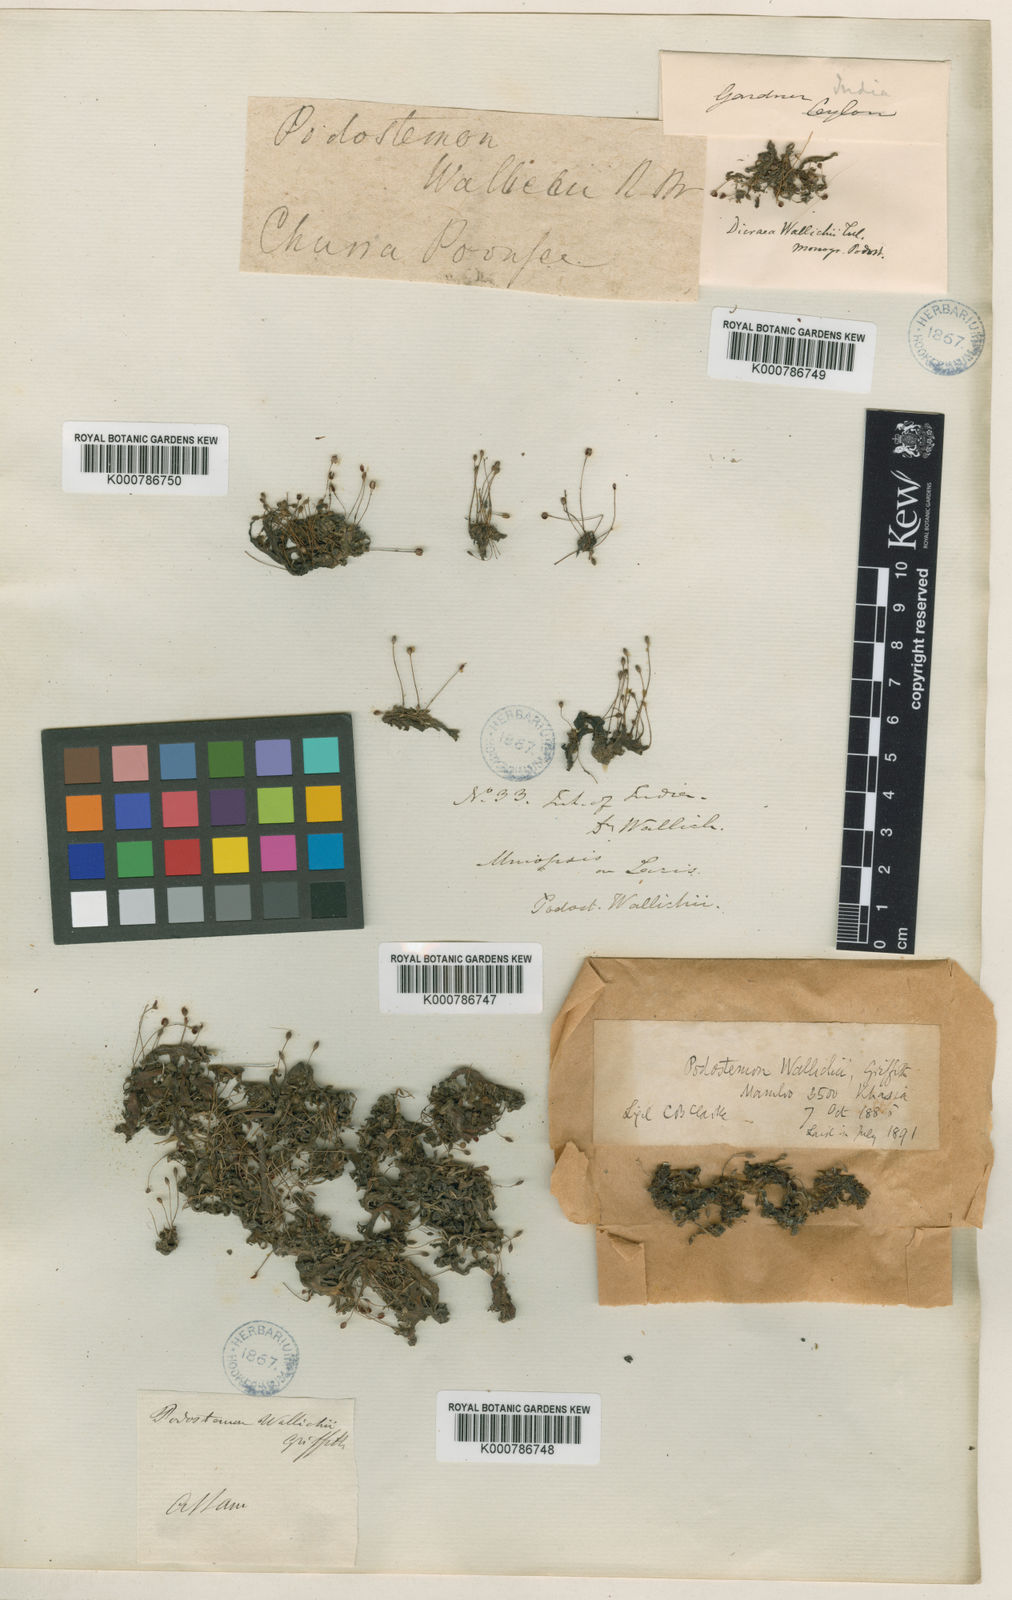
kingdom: Plantae
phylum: Tracheophyta
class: Magnoliopsida
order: Malpighiales
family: Podostemaceae
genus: Polypleurum
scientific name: Polypleurum wallichii
